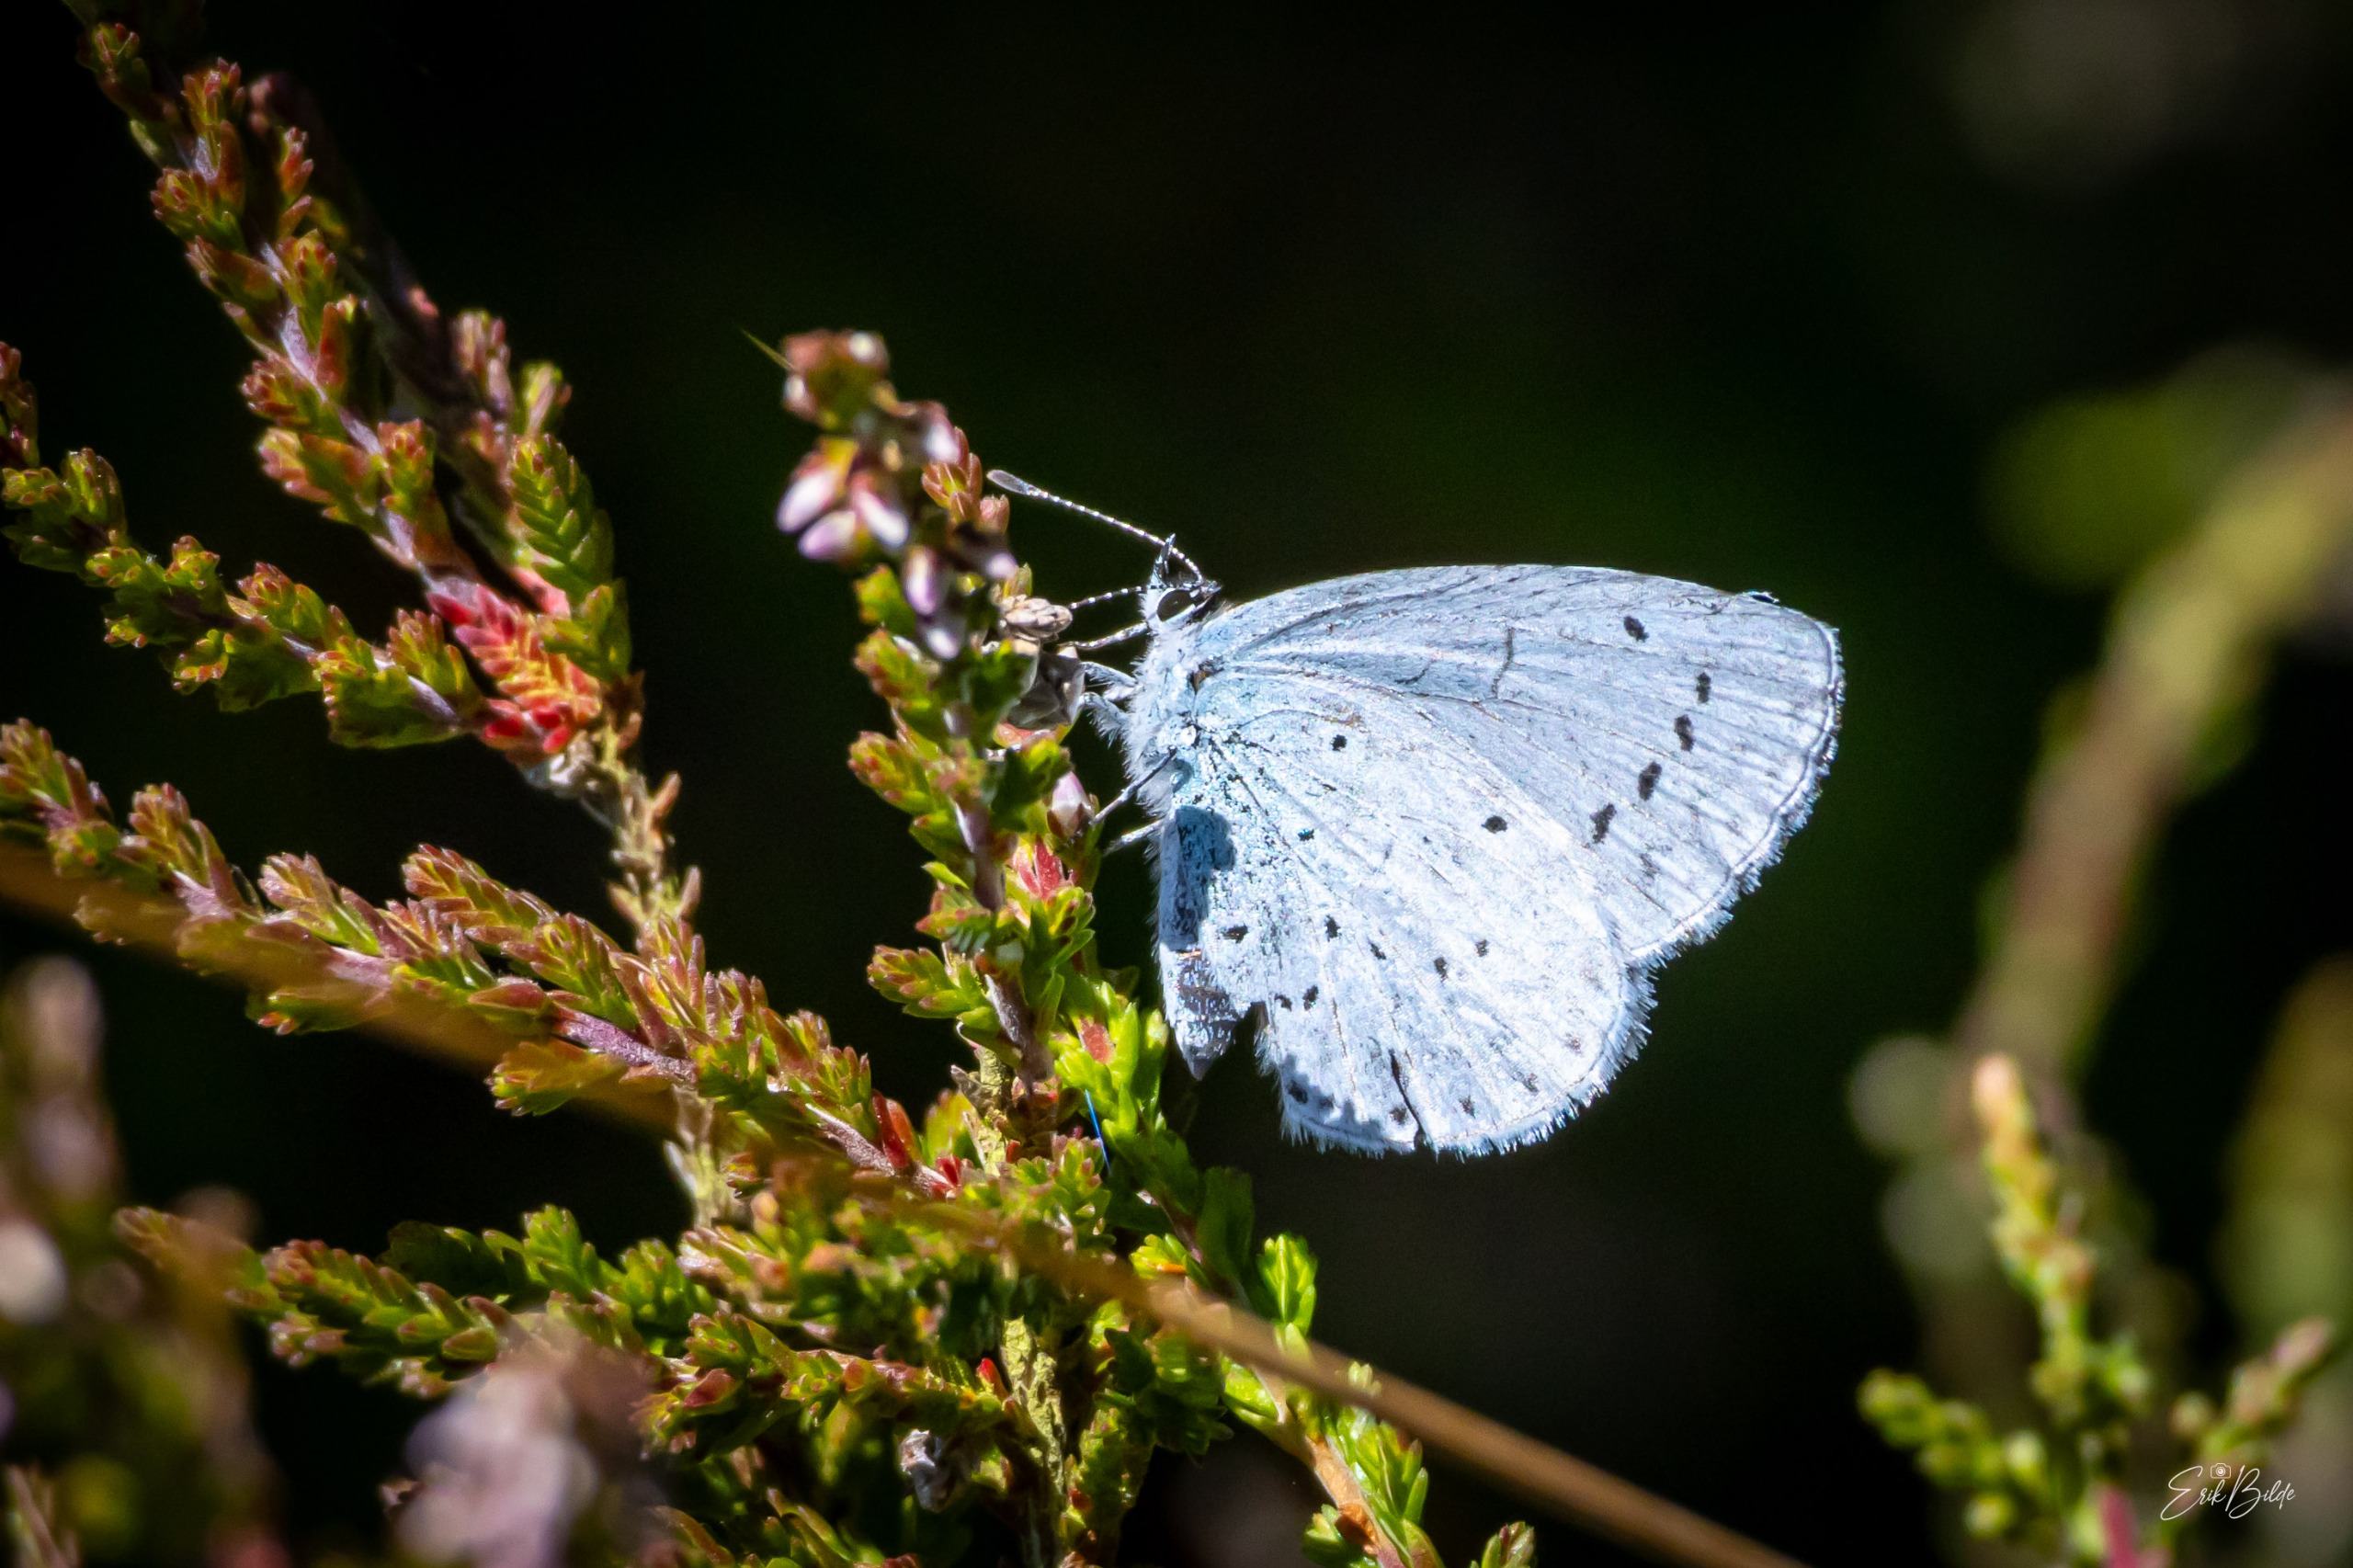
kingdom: Animalia
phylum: Arthropoda
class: Insecta
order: Lepidoptera
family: Lycaenidae
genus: Celastrina
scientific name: Celastrina argiolus
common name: Skovblåfugl
